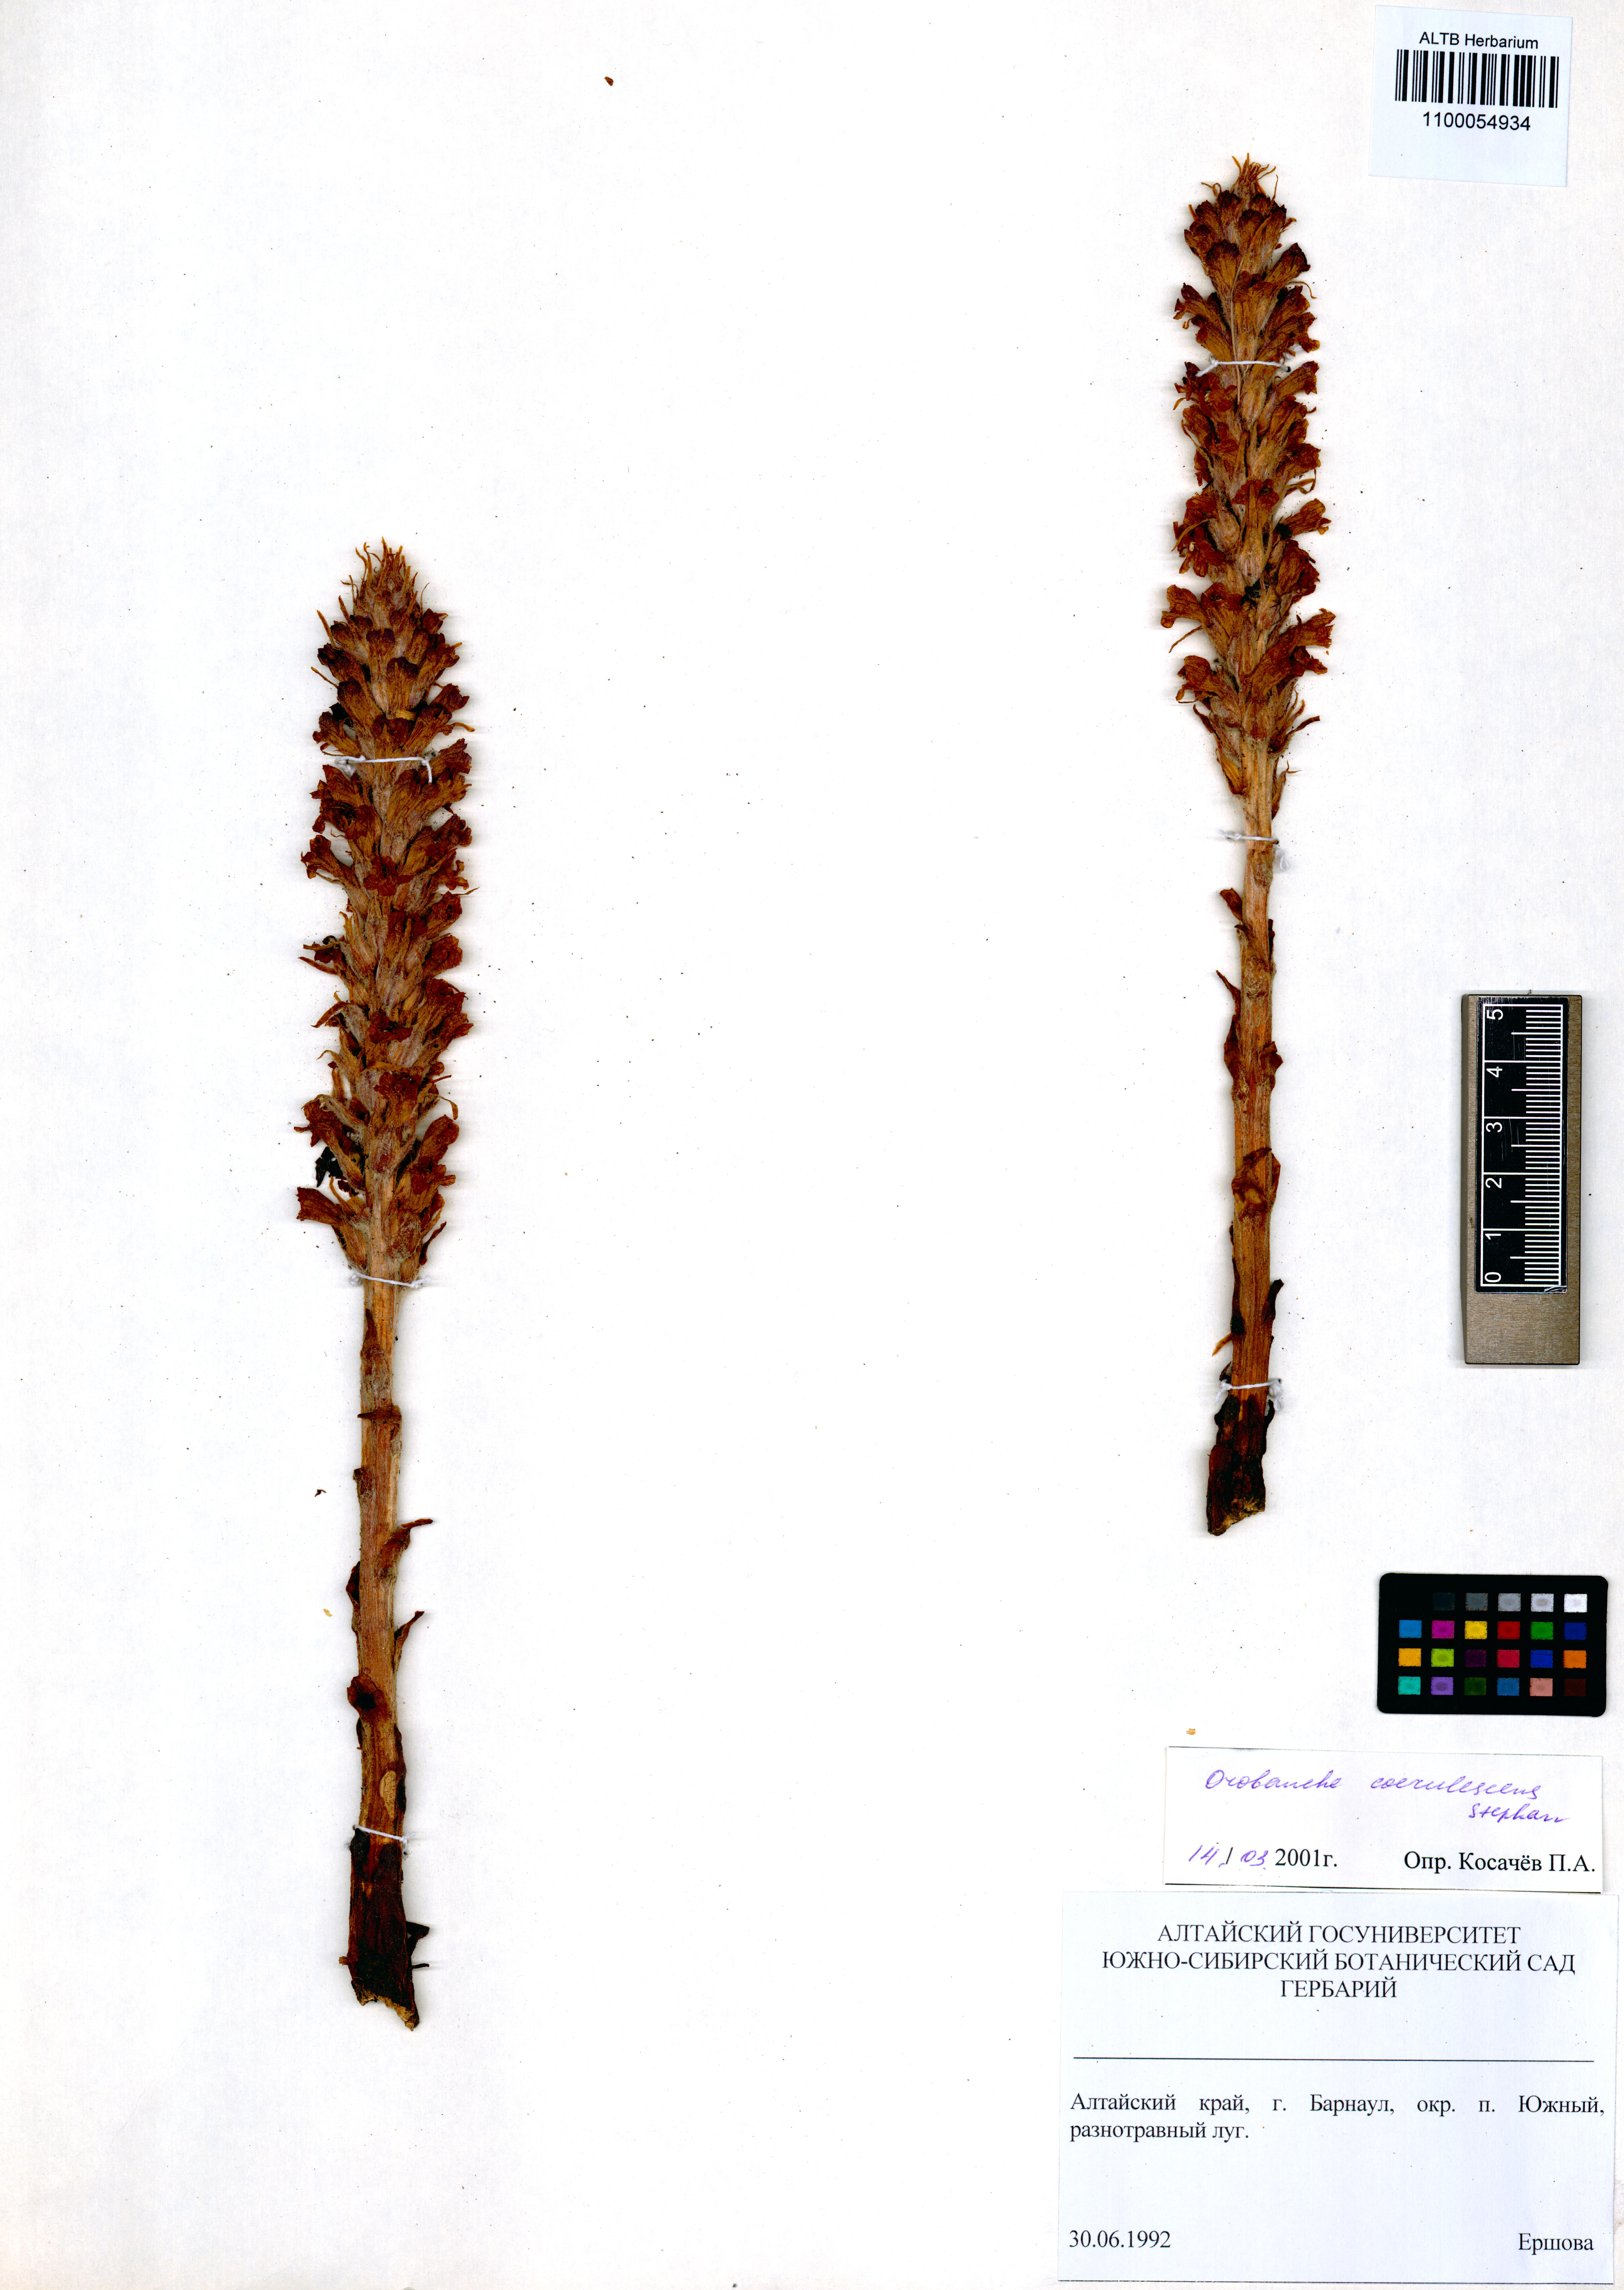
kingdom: Plantae
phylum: Tracheophyta
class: Magnoliopsida
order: Lamiales
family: Orobanchaceae
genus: Orobanche
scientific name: Orobanche coerulescens
